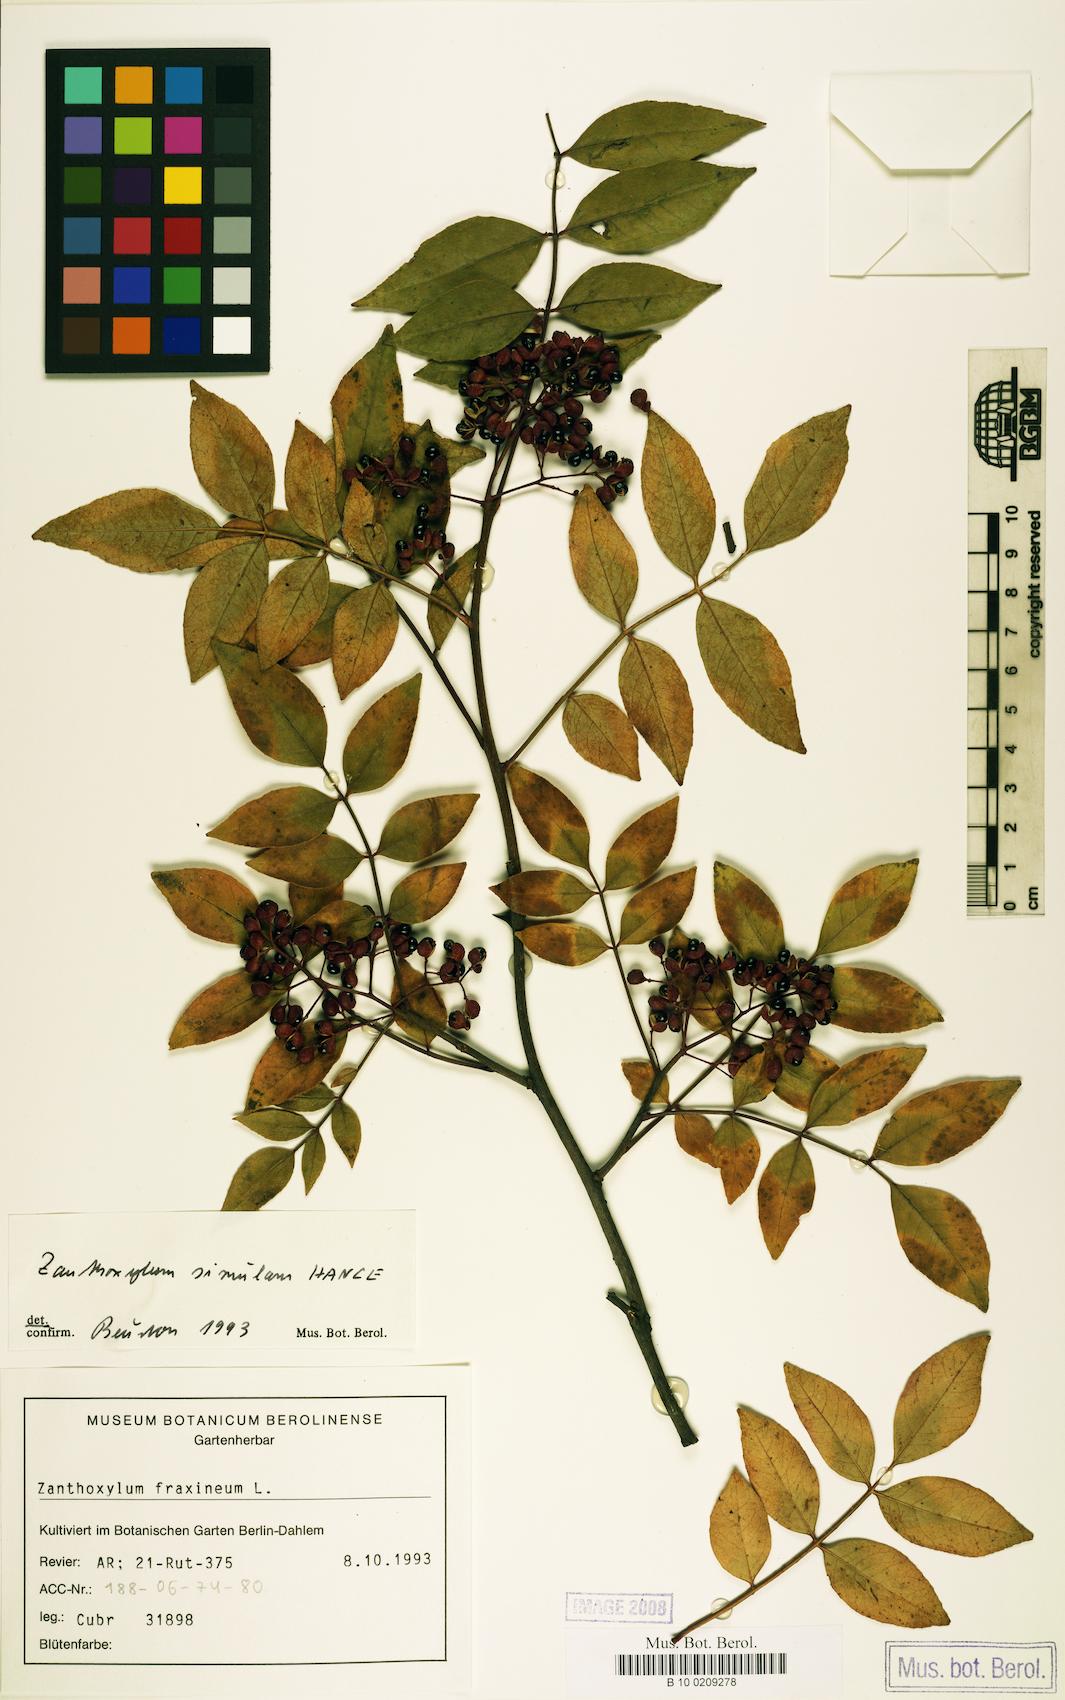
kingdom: Plantae
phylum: Tracheophyta
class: Magnoliopsida
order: Sapindales
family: Rutaceae
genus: Zanthoxylum
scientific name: Zanthoxylum simulans
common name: Chinese-pepper
